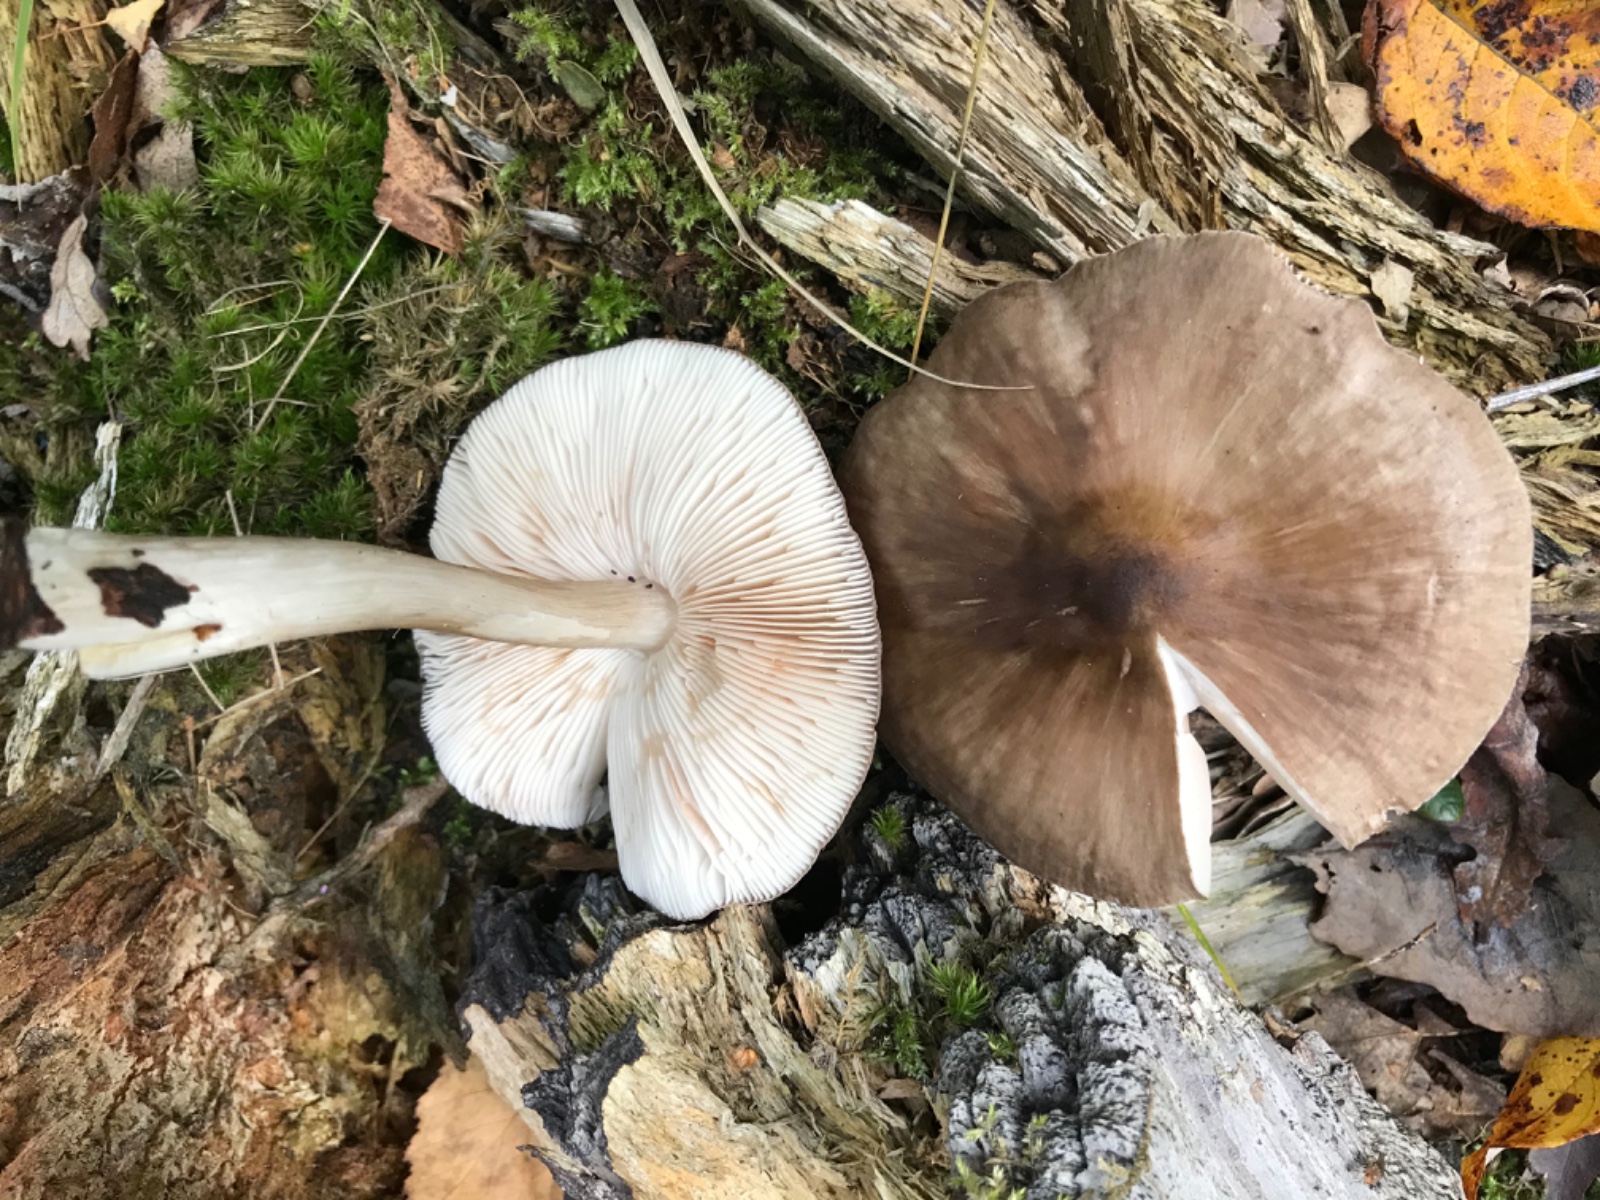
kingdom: Fungi
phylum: Basidiomycota
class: Agaricomycetes
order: Agaricales
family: Pluteaceae
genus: Pluteus
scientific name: Pluteus cervinus
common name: sodfarvet skærmhat
